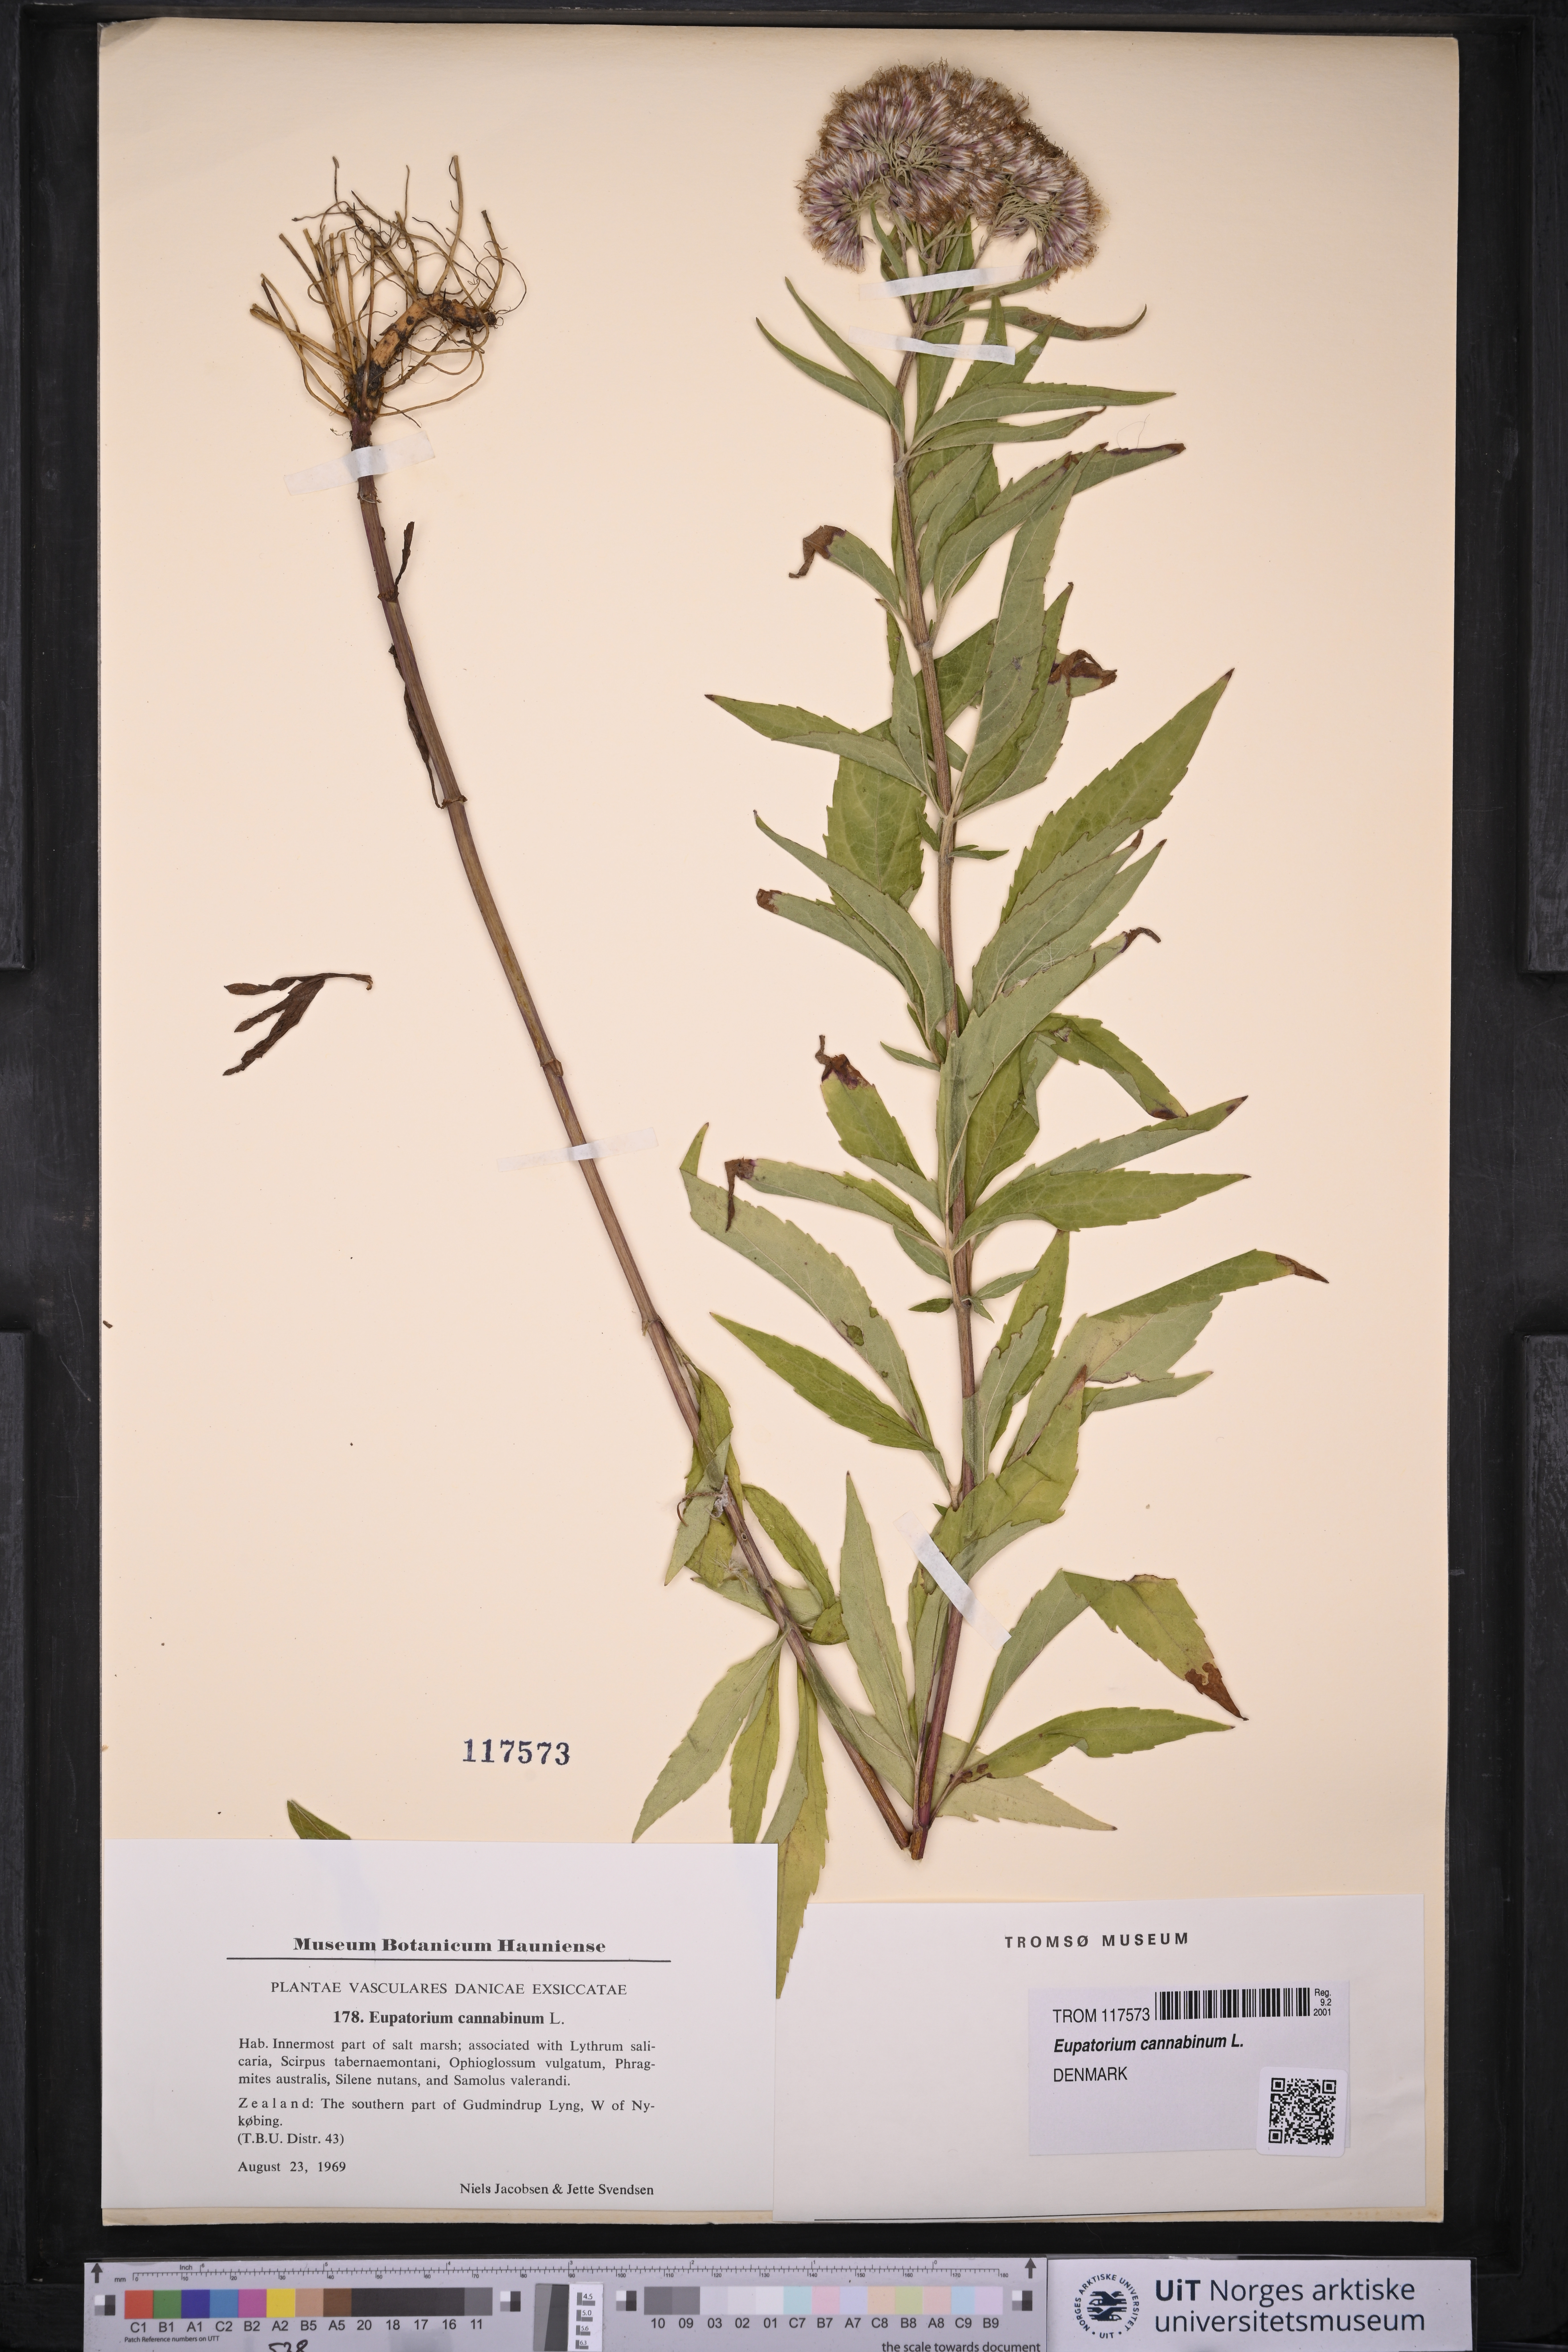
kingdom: Plantae
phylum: Tracheophyta
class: Magnoliopsida
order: Asterales
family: Asteraceae
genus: Eupatorium
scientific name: Eupatorium cannabinum
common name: Hemp-agrimony
